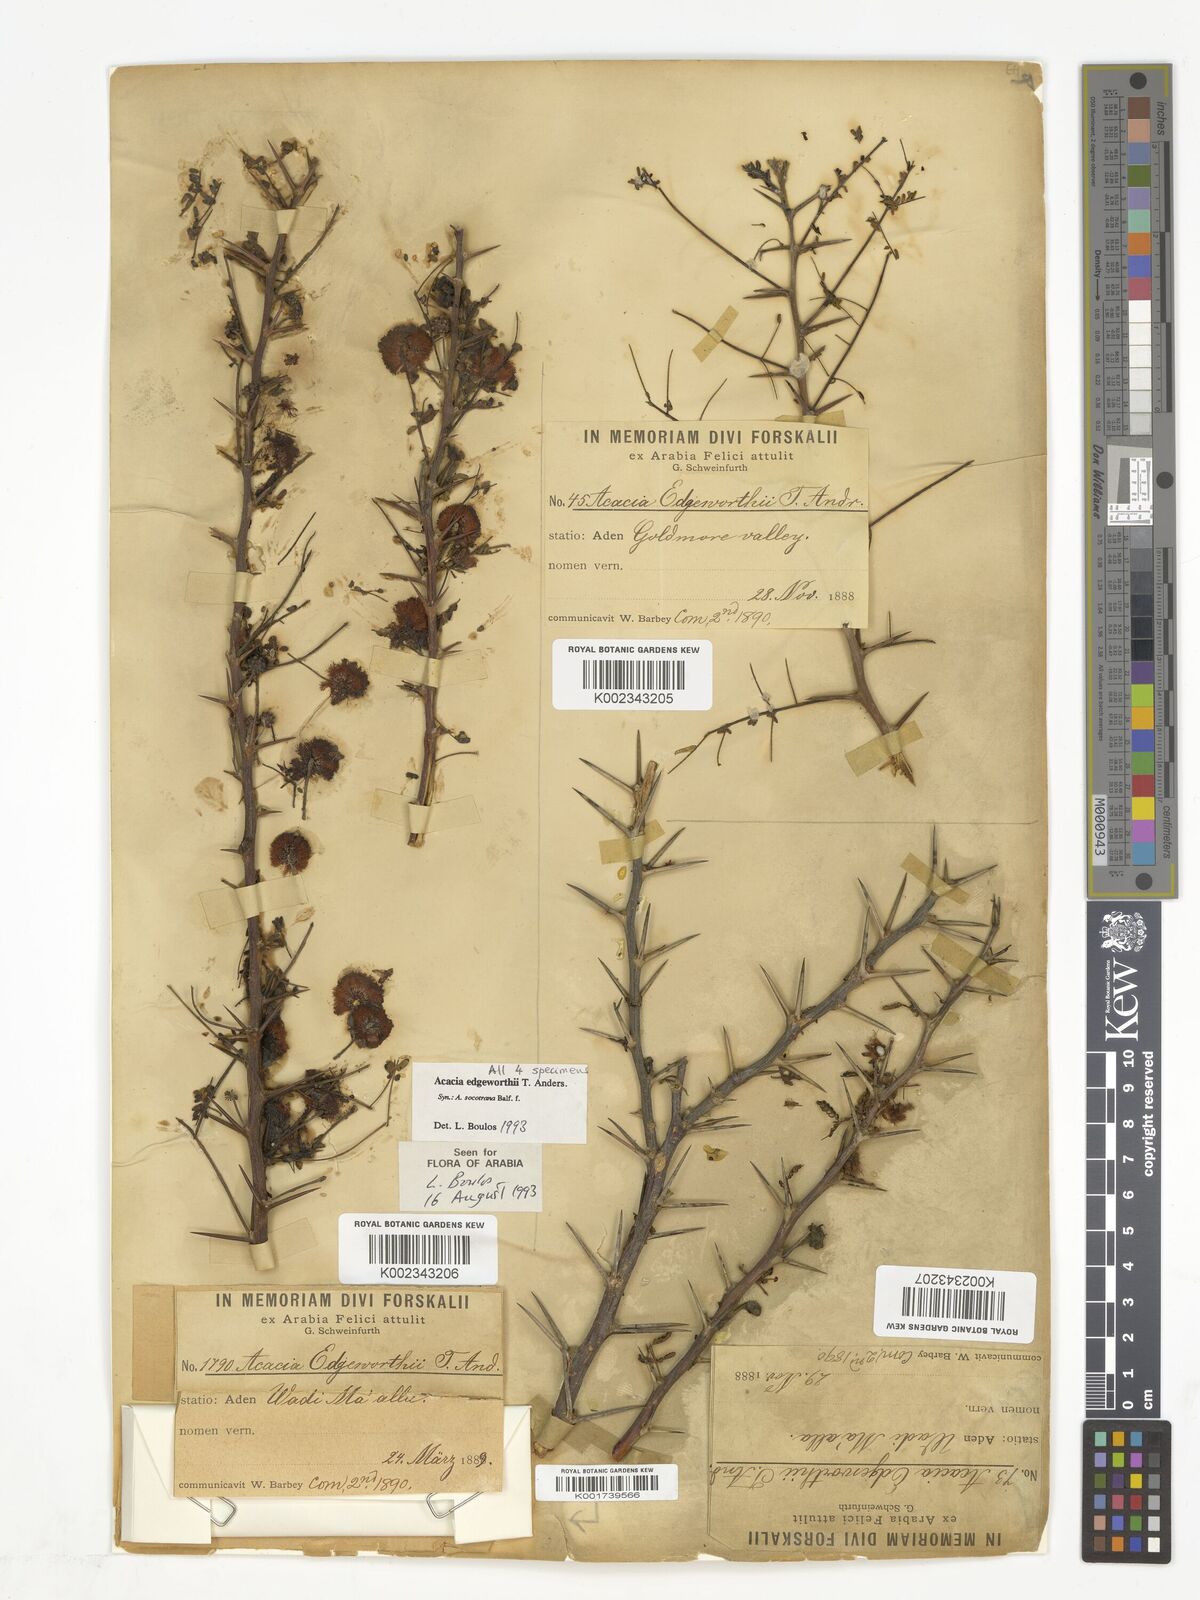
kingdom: Plantae
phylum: Tracheophyta
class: Magnoliopsida
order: Fabales
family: Fabaceae
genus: Vachellia
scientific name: Vachellia edgeworthii
